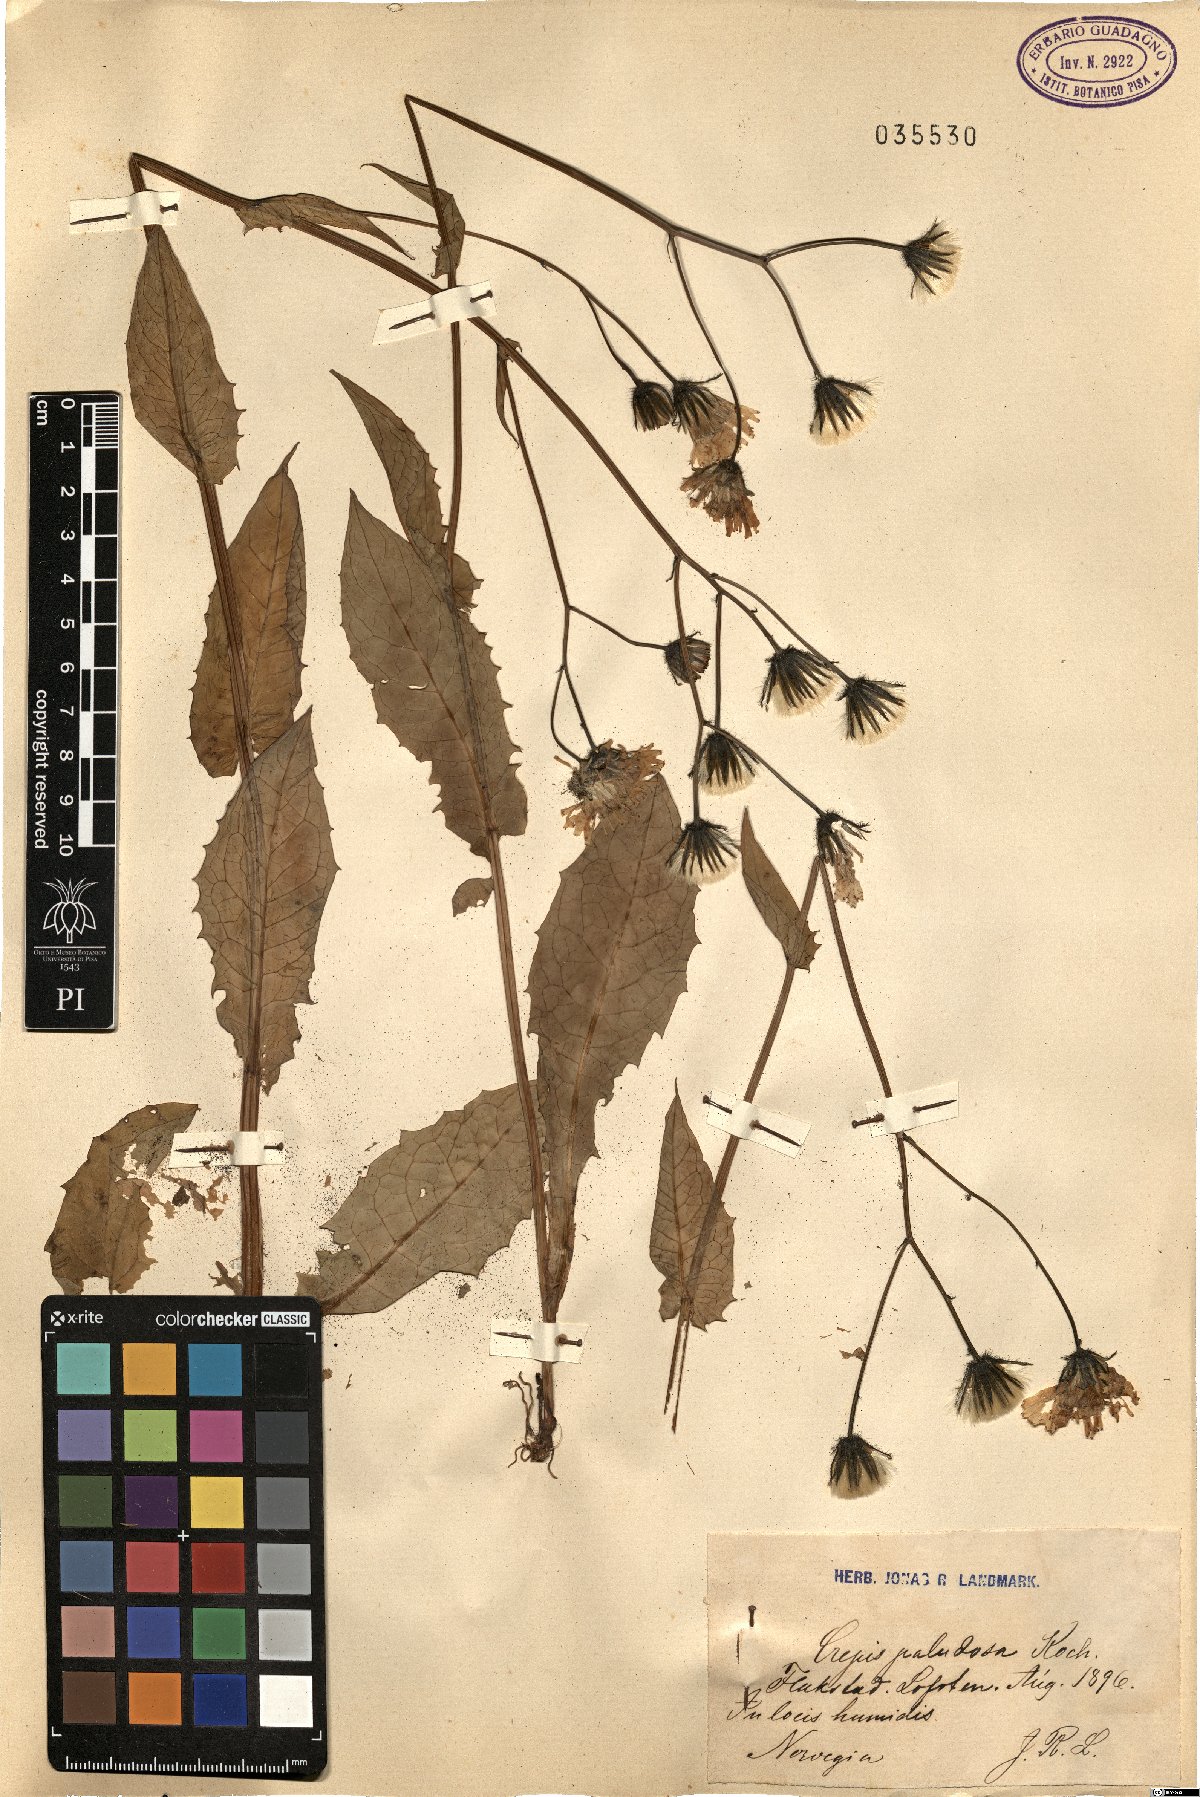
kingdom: Plantae
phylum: Tracheophyta
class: Magnoliopsida
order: Asterales
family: Asteraceae
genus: Crepis
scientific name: Crepis paludosa
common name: Marsh hawk's-beard
